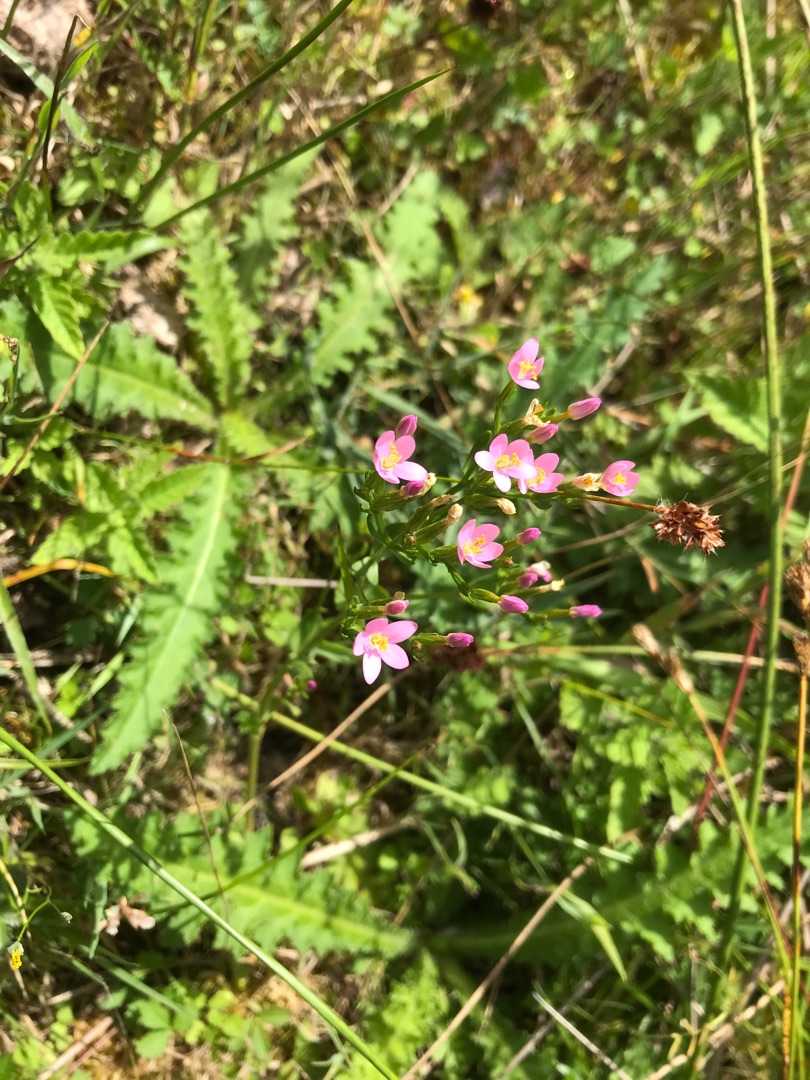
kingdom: Plantae
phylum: Tracheophyta
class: Magnoliopsida
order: Gentianales
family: Gentianaceae
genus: Centaurium
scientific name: Centaurium erythraea
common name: Mark-tusindgylden
